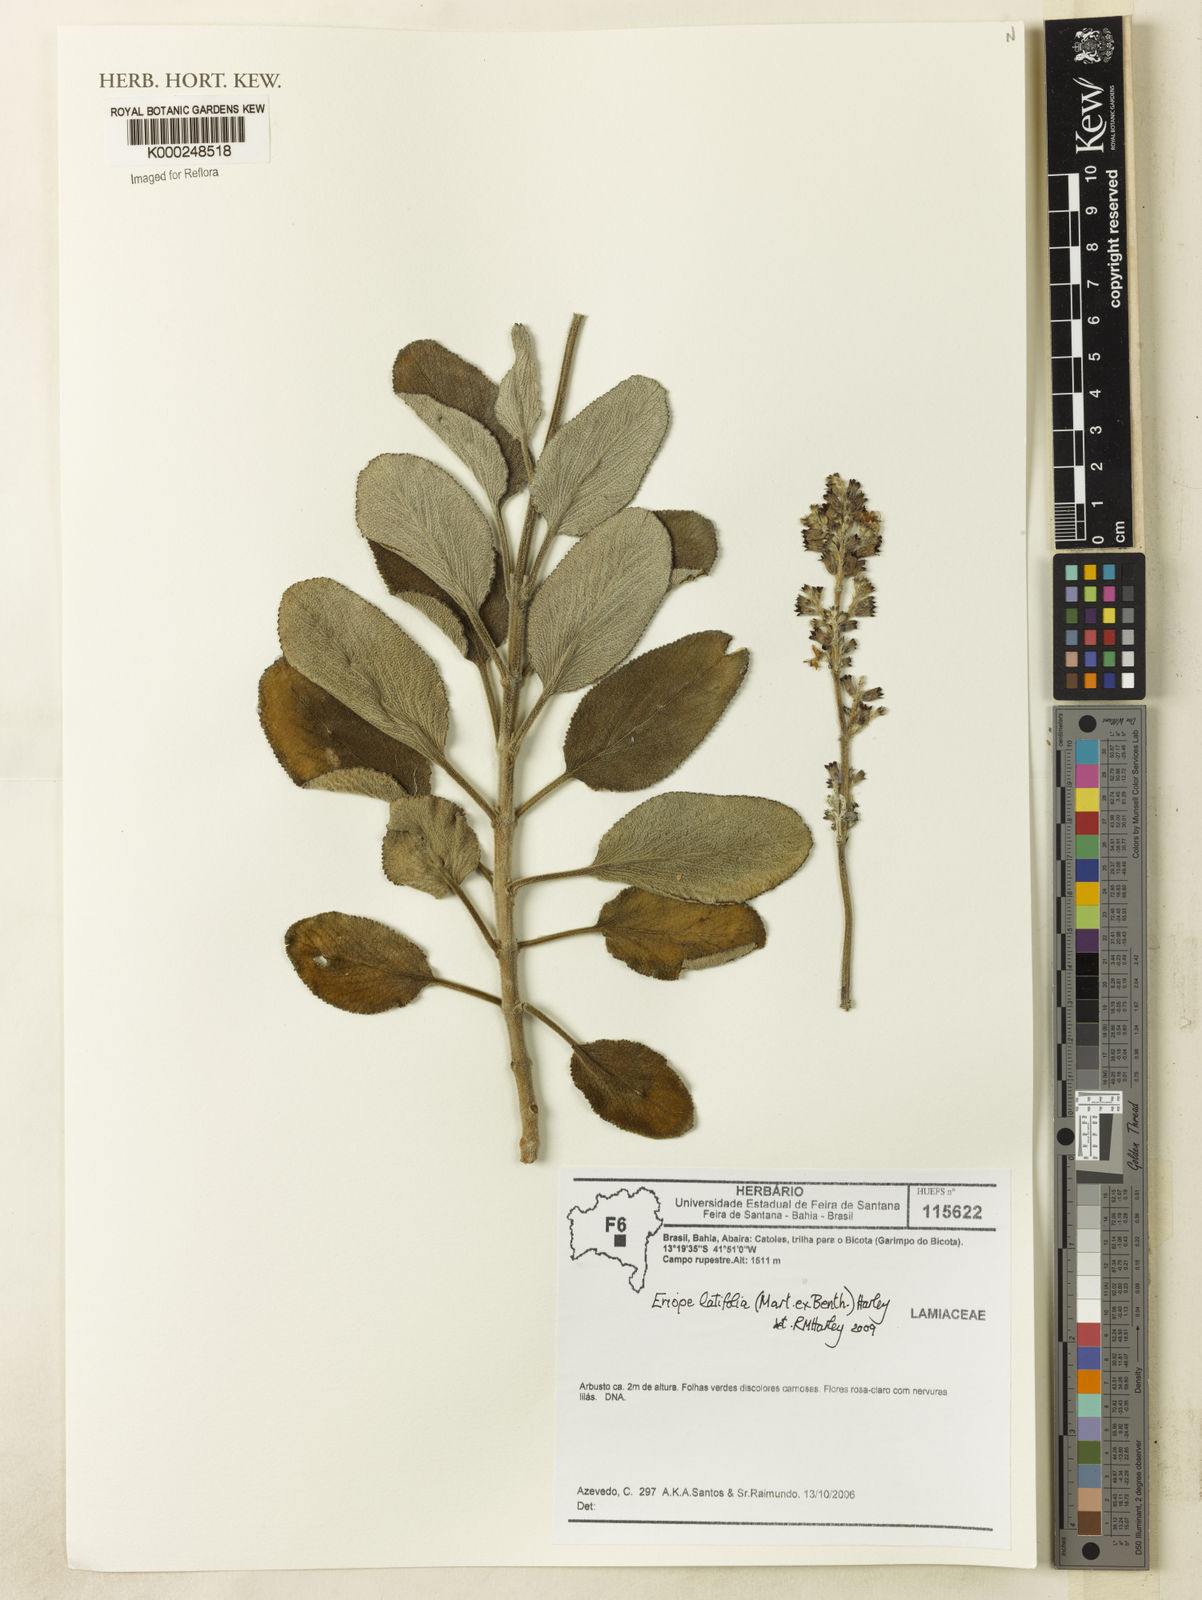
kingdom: Plantae
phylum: Tracheophyta
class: Magnoliopsida
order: Lamiales
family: Lamiaceae
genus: Eriope
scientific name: Eriope latifolia
